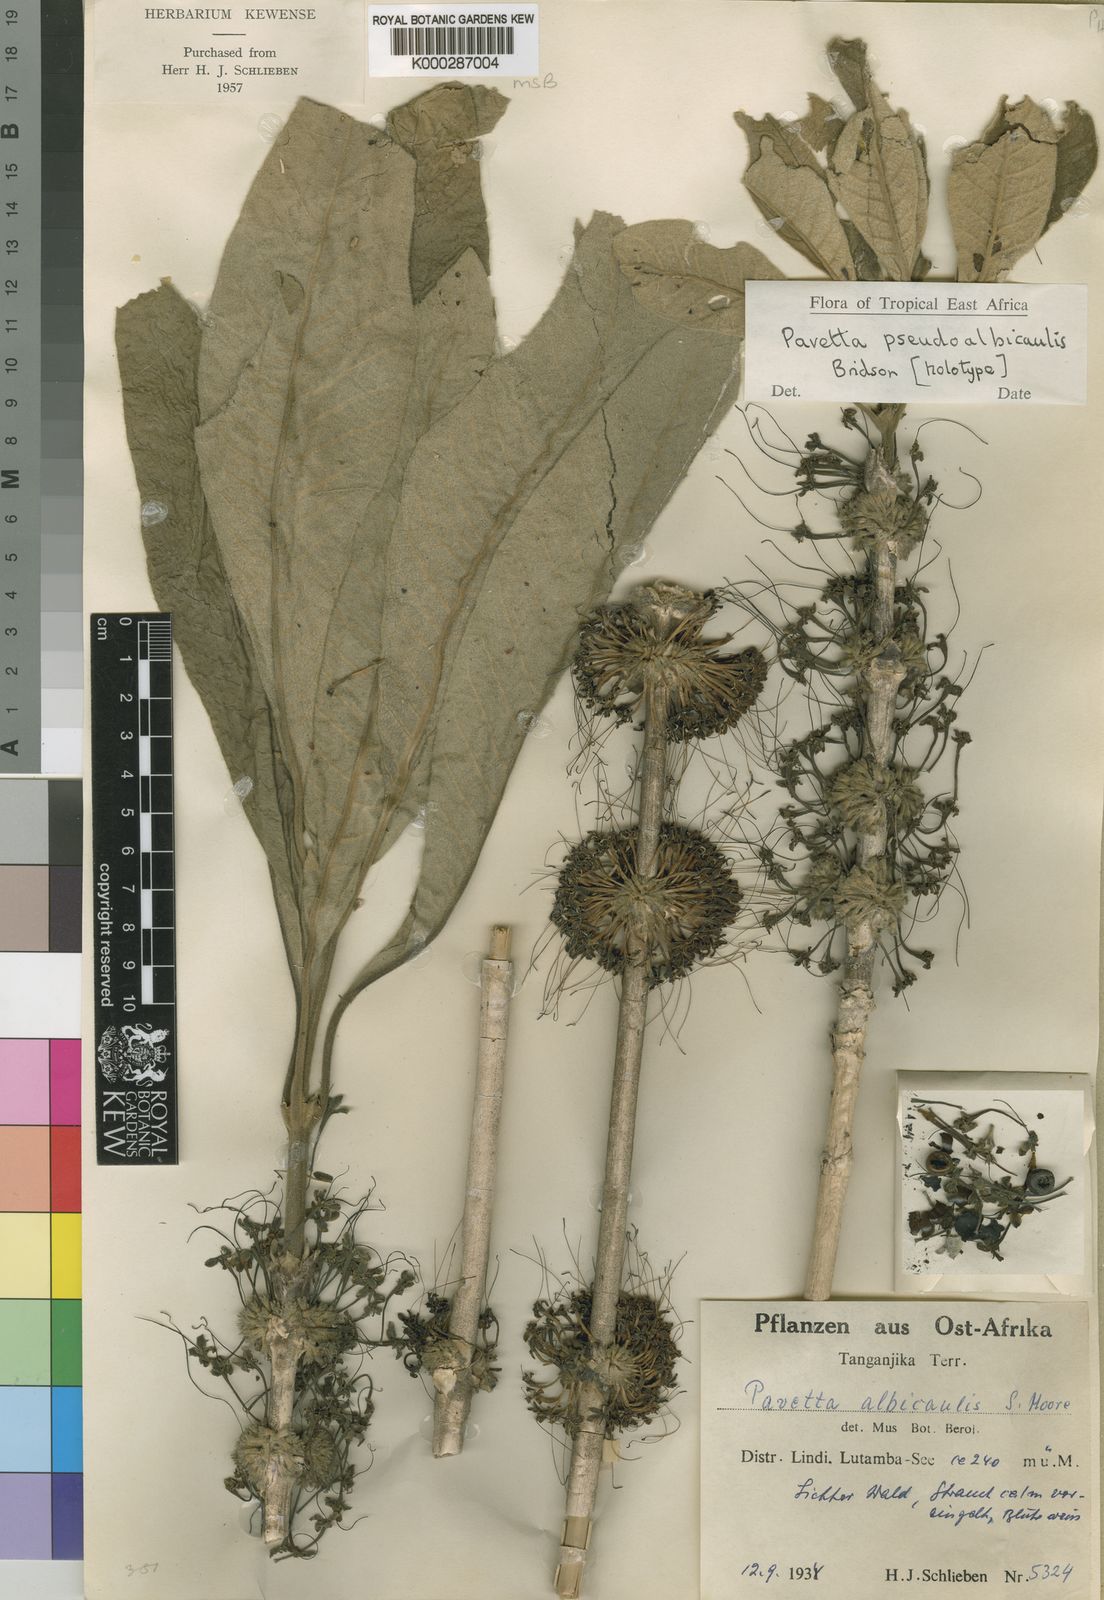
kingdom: Plantae
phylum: Tracheophyta
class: Magnoliopsida
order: Gentianales
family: Rubiaceae
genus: Pavetta
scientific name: Pavetta pseudoalbicaulis
